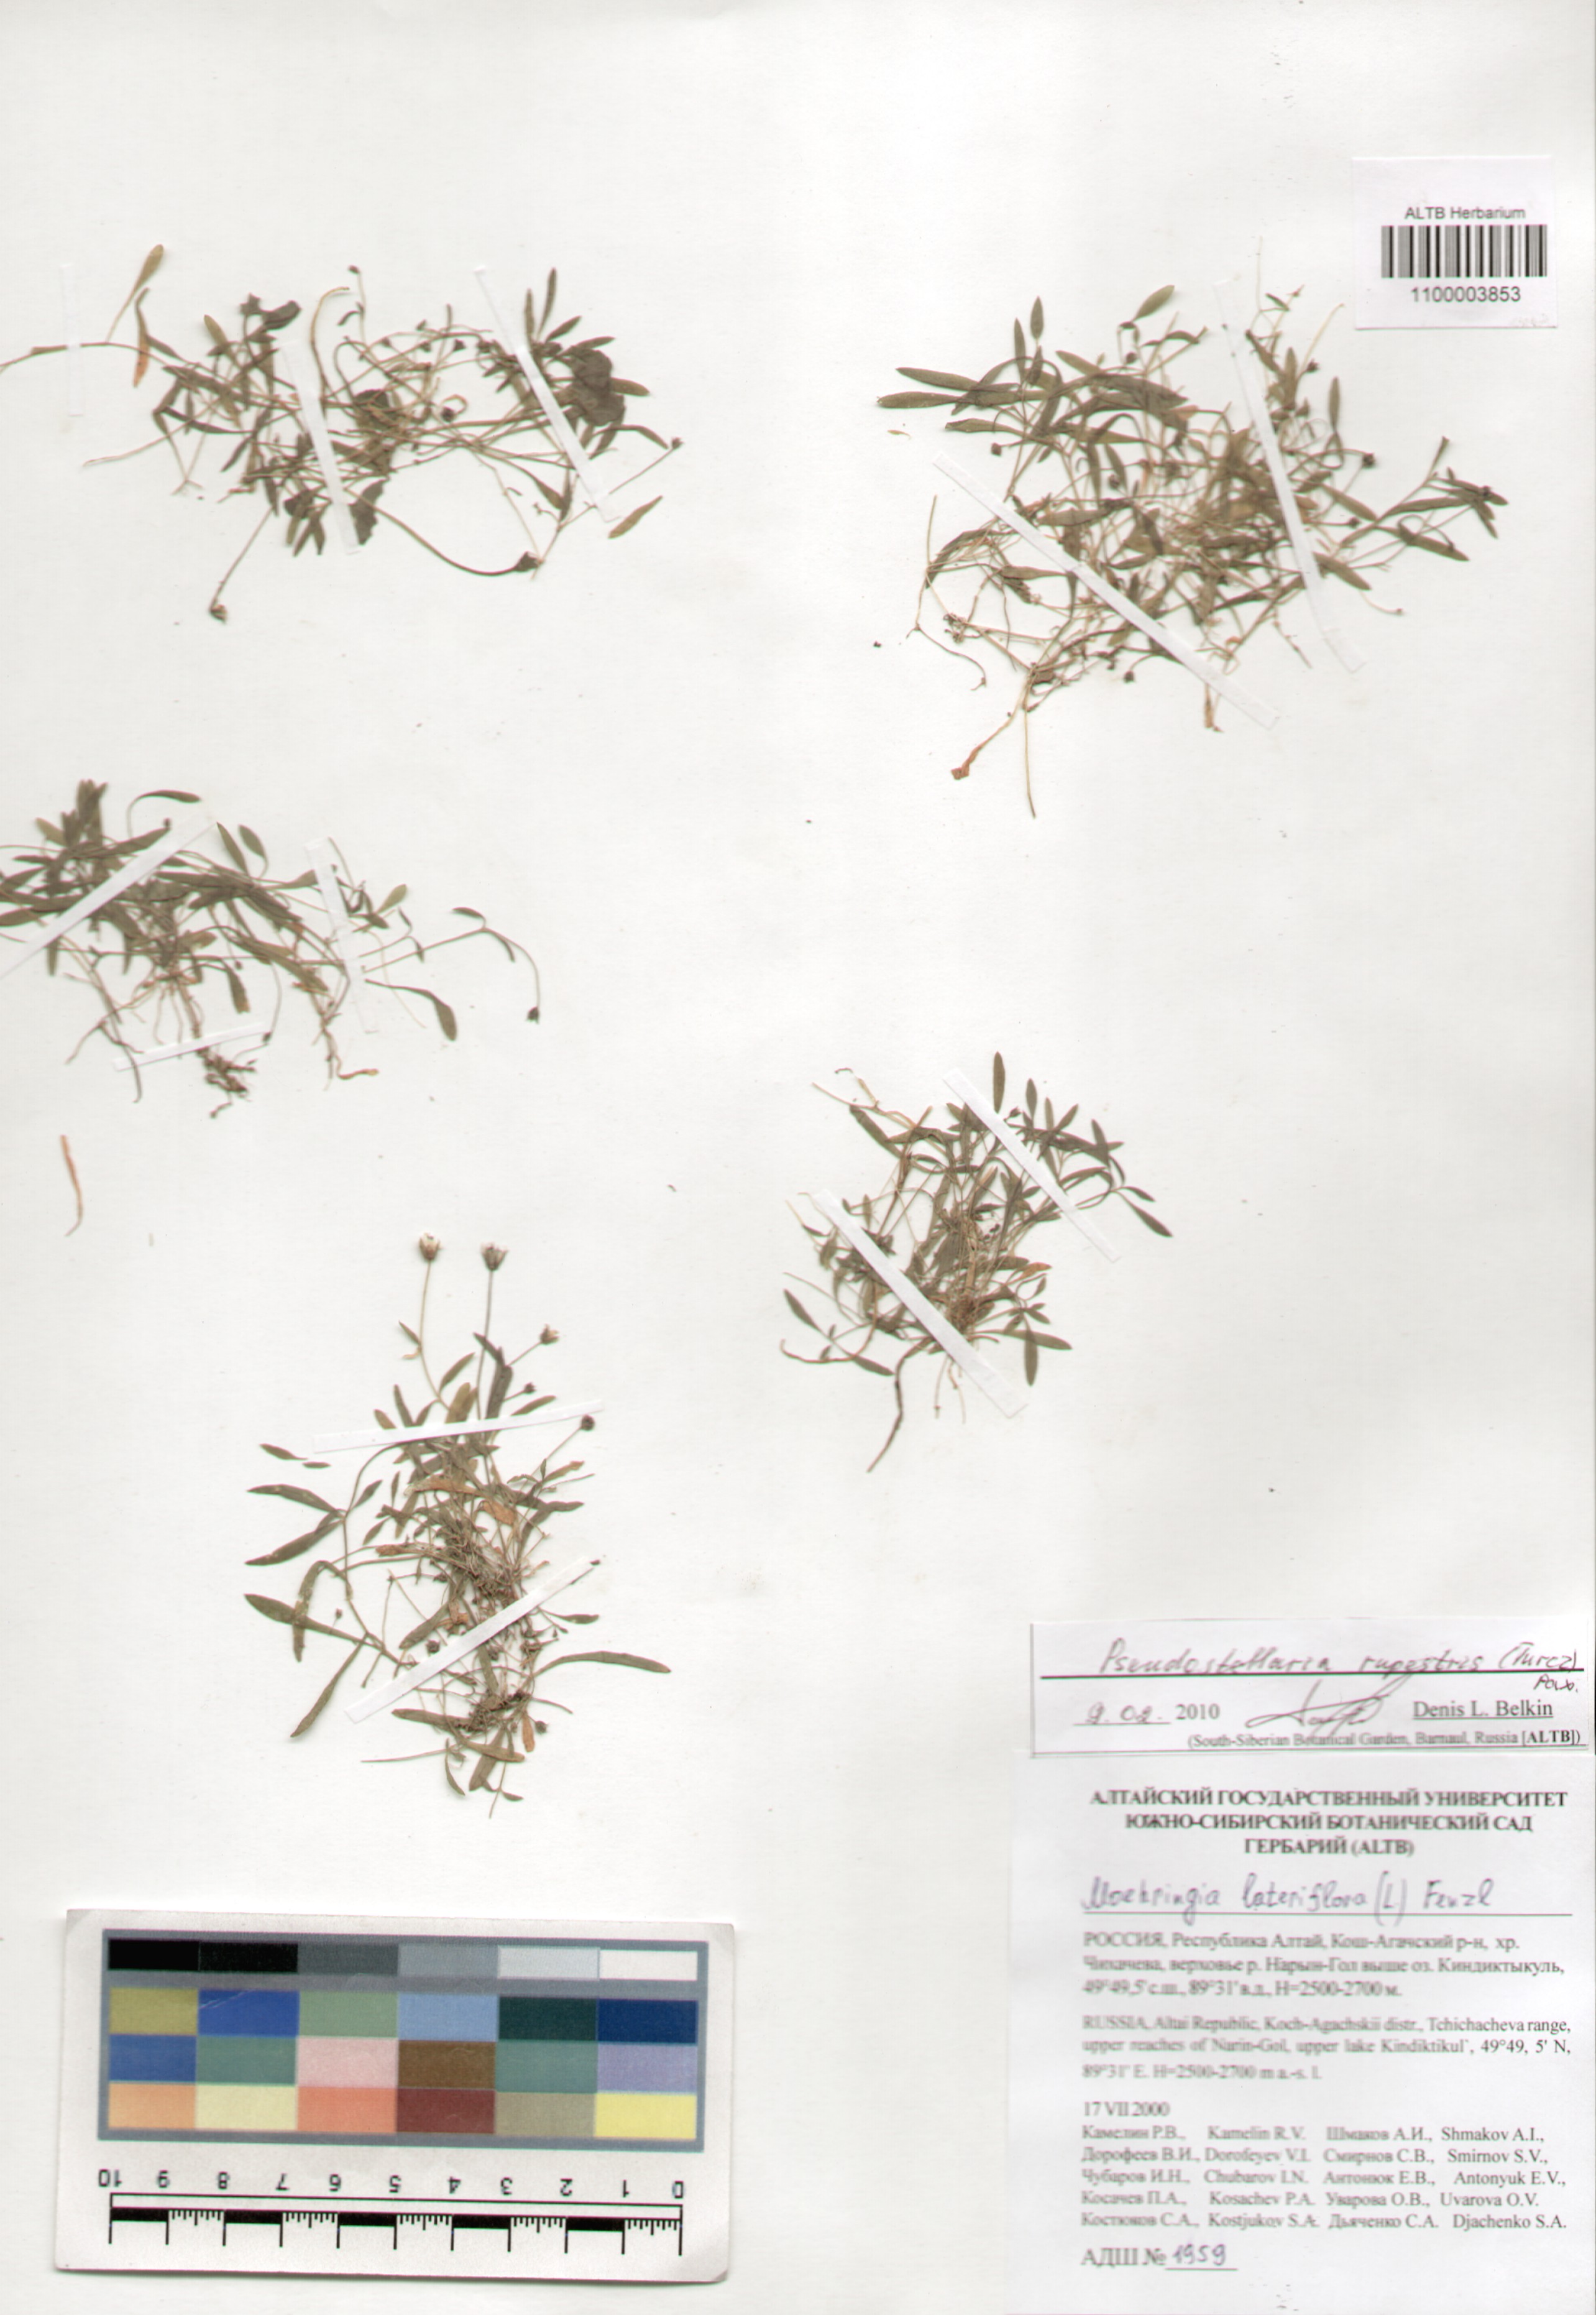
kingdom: Plantae
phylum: Tracheophyta
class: Magnoliopsida
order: Caryophyllales
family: Caryophyllaceae
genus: Pseudostellaria
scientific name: Pseudostellaria sylvatica
